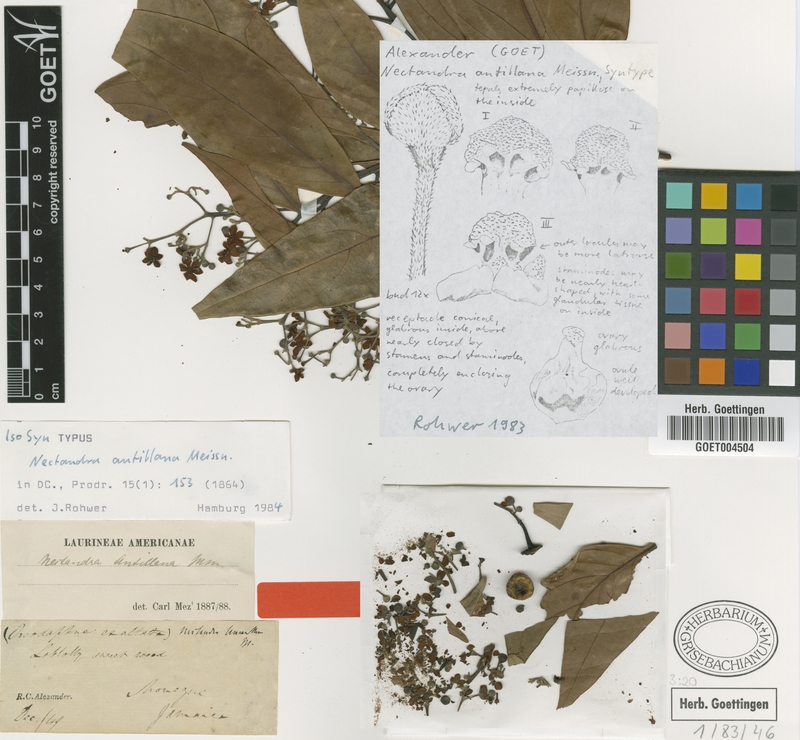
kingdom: Plantae
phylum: Tracheophyta
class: Magnoliopsida
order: Laurales
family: Lauraceae
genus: Nectandra
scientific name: Nectandra hihua
